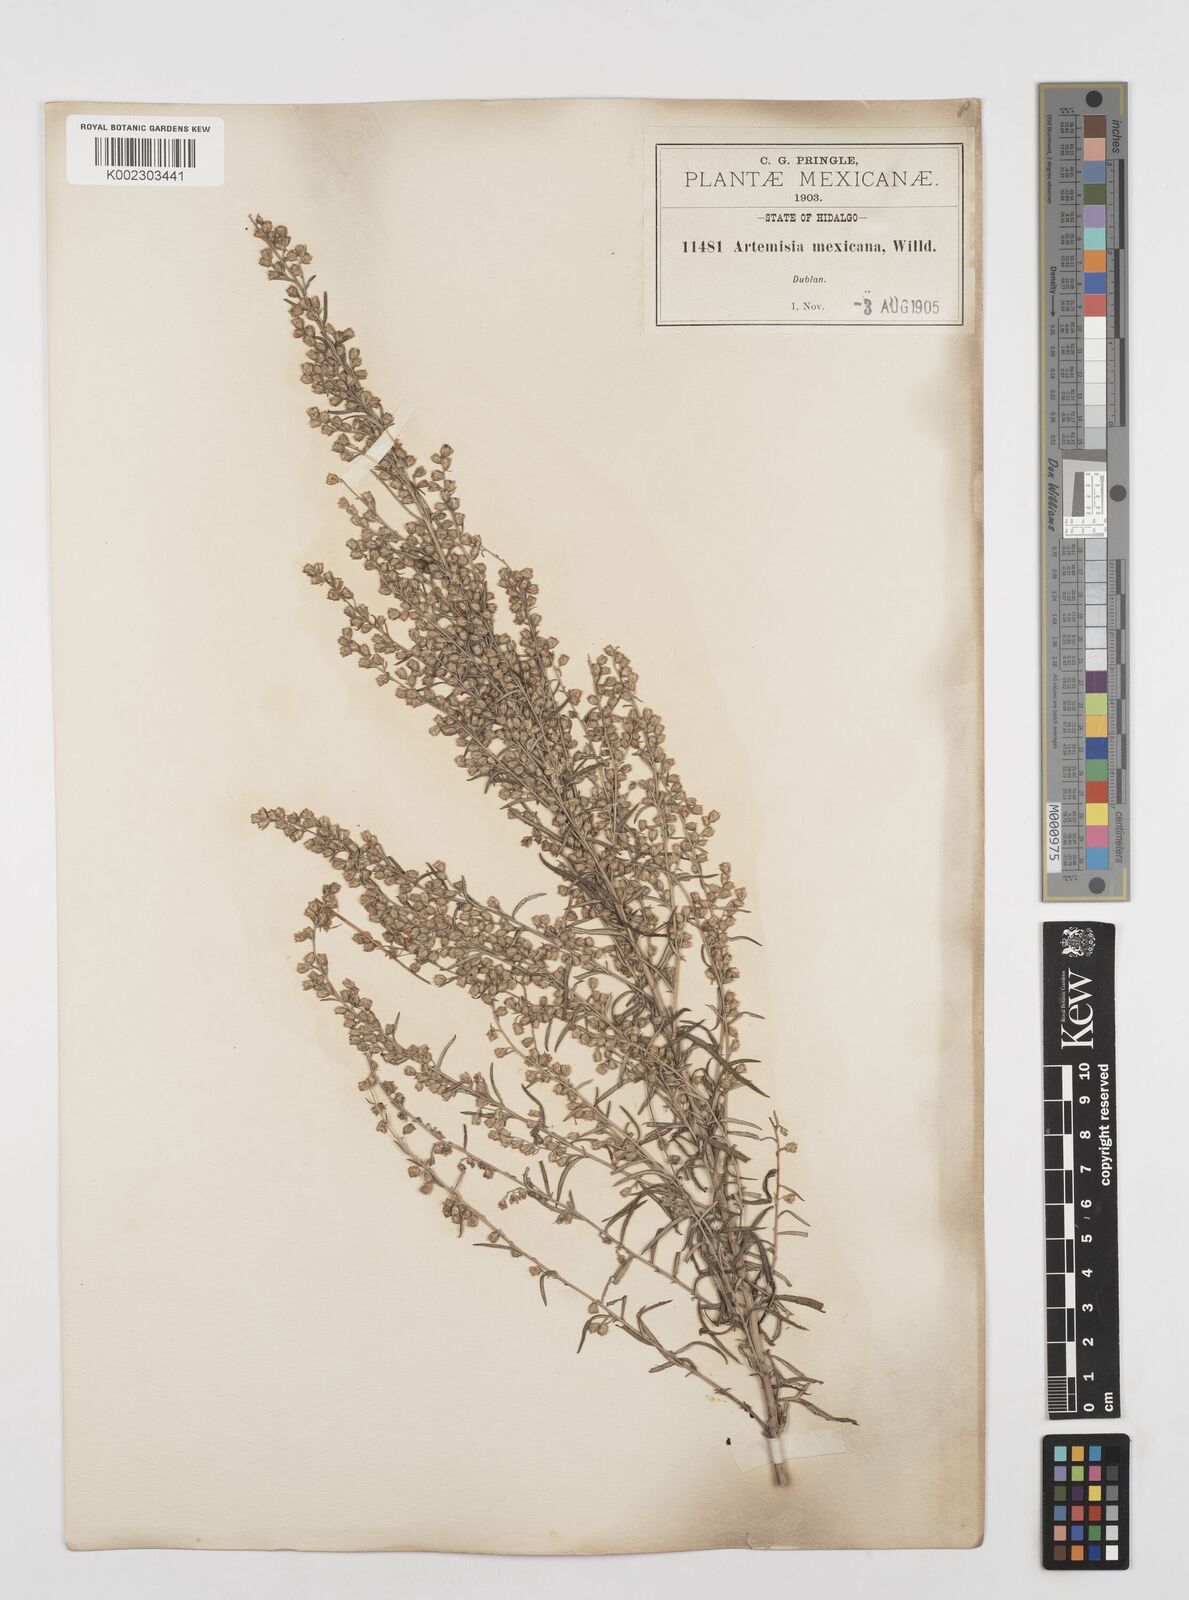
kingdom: Plantae
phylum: Tracheophyta
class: Magnoliopsida
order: Asterales
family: Asteraceae
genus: Artemisia
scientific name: Artemisia ludoviciana
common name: Western mugwort
